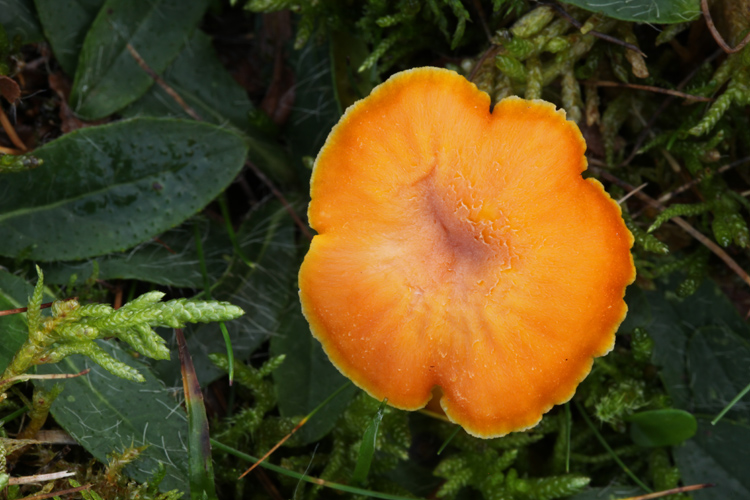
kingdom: Fungi
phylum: Basidiomycota
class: Agaricomycetes
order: Agaricales
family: Hygrophoraceae
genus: Hygrocybe
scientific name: Hygrocybe miniata
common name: mønje-vokshat
